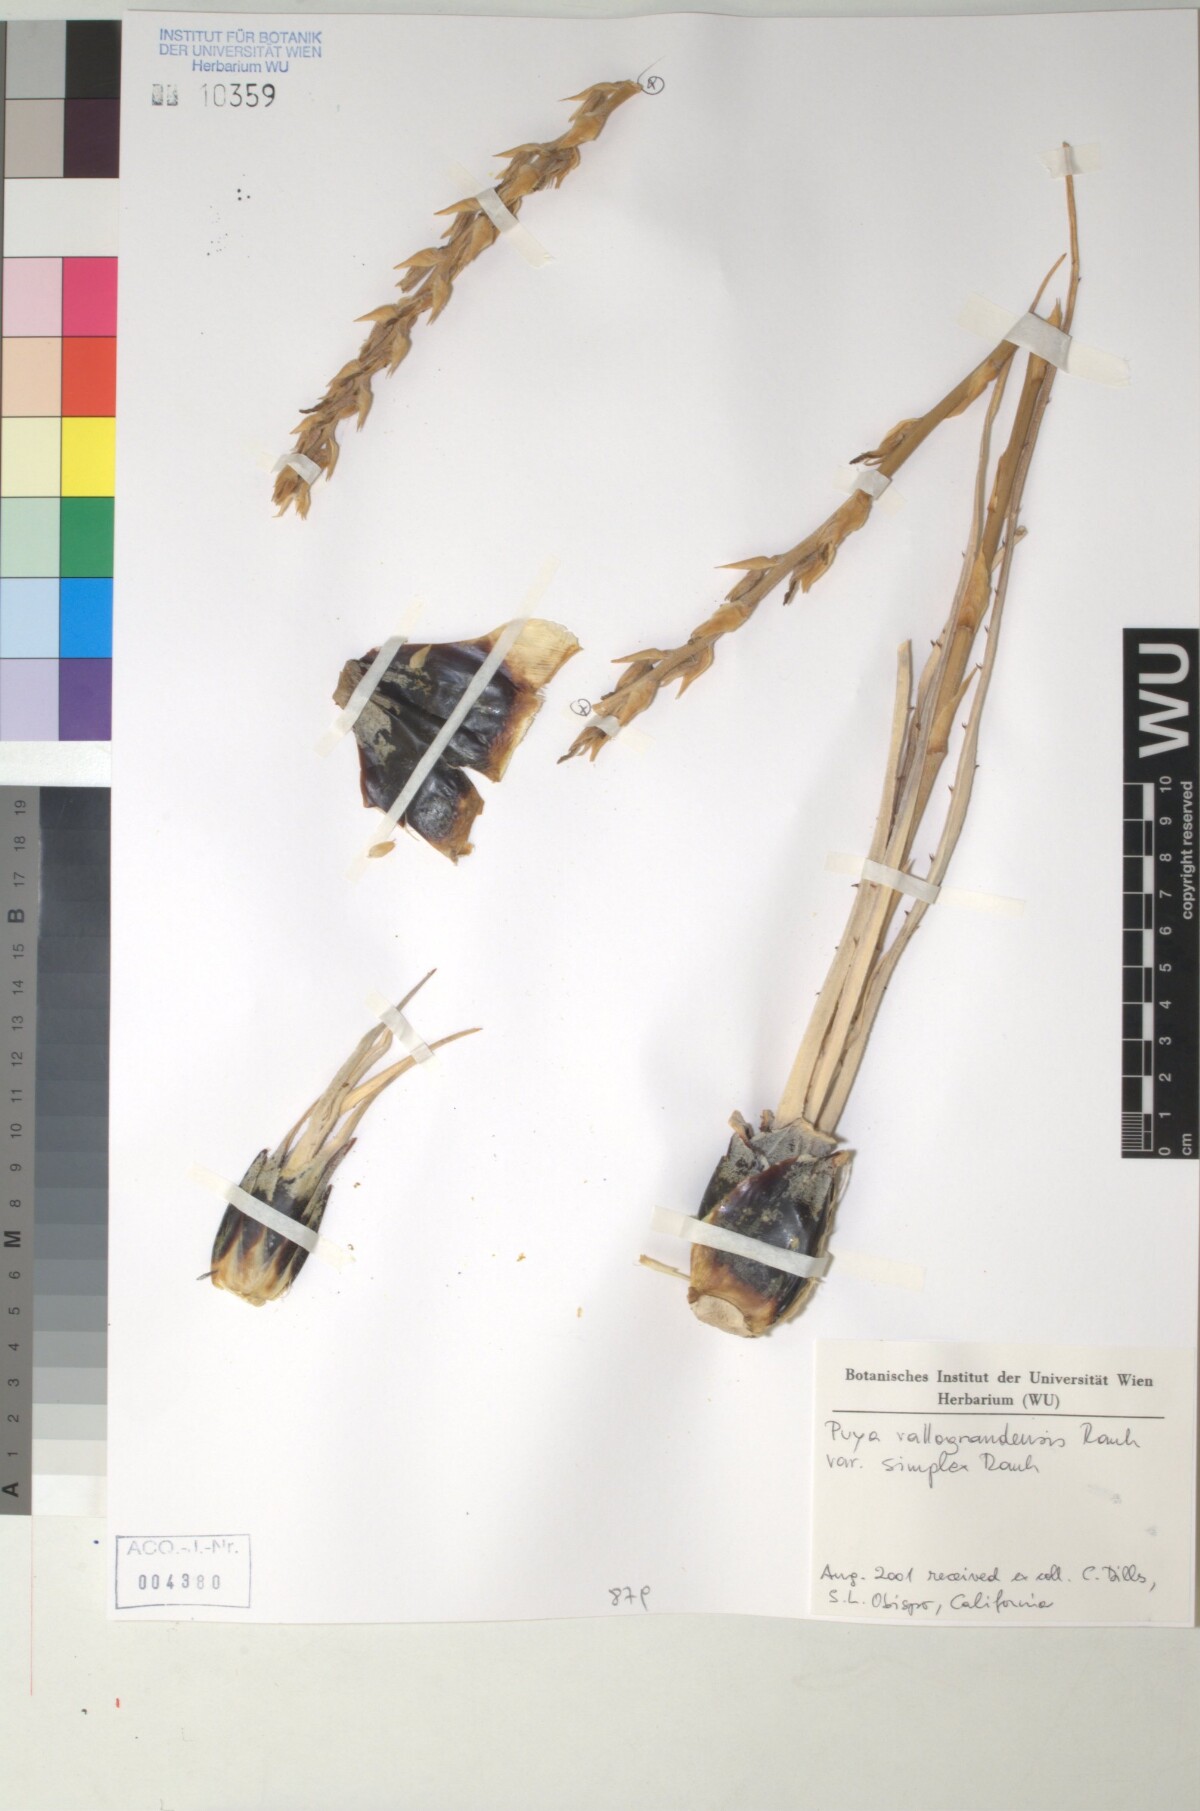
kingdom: Plantae
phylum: Tracheophyta
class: Liliopsida
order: Poales
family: Bromeliaceae
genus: Puya
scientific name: Puya vallo-grandensis
